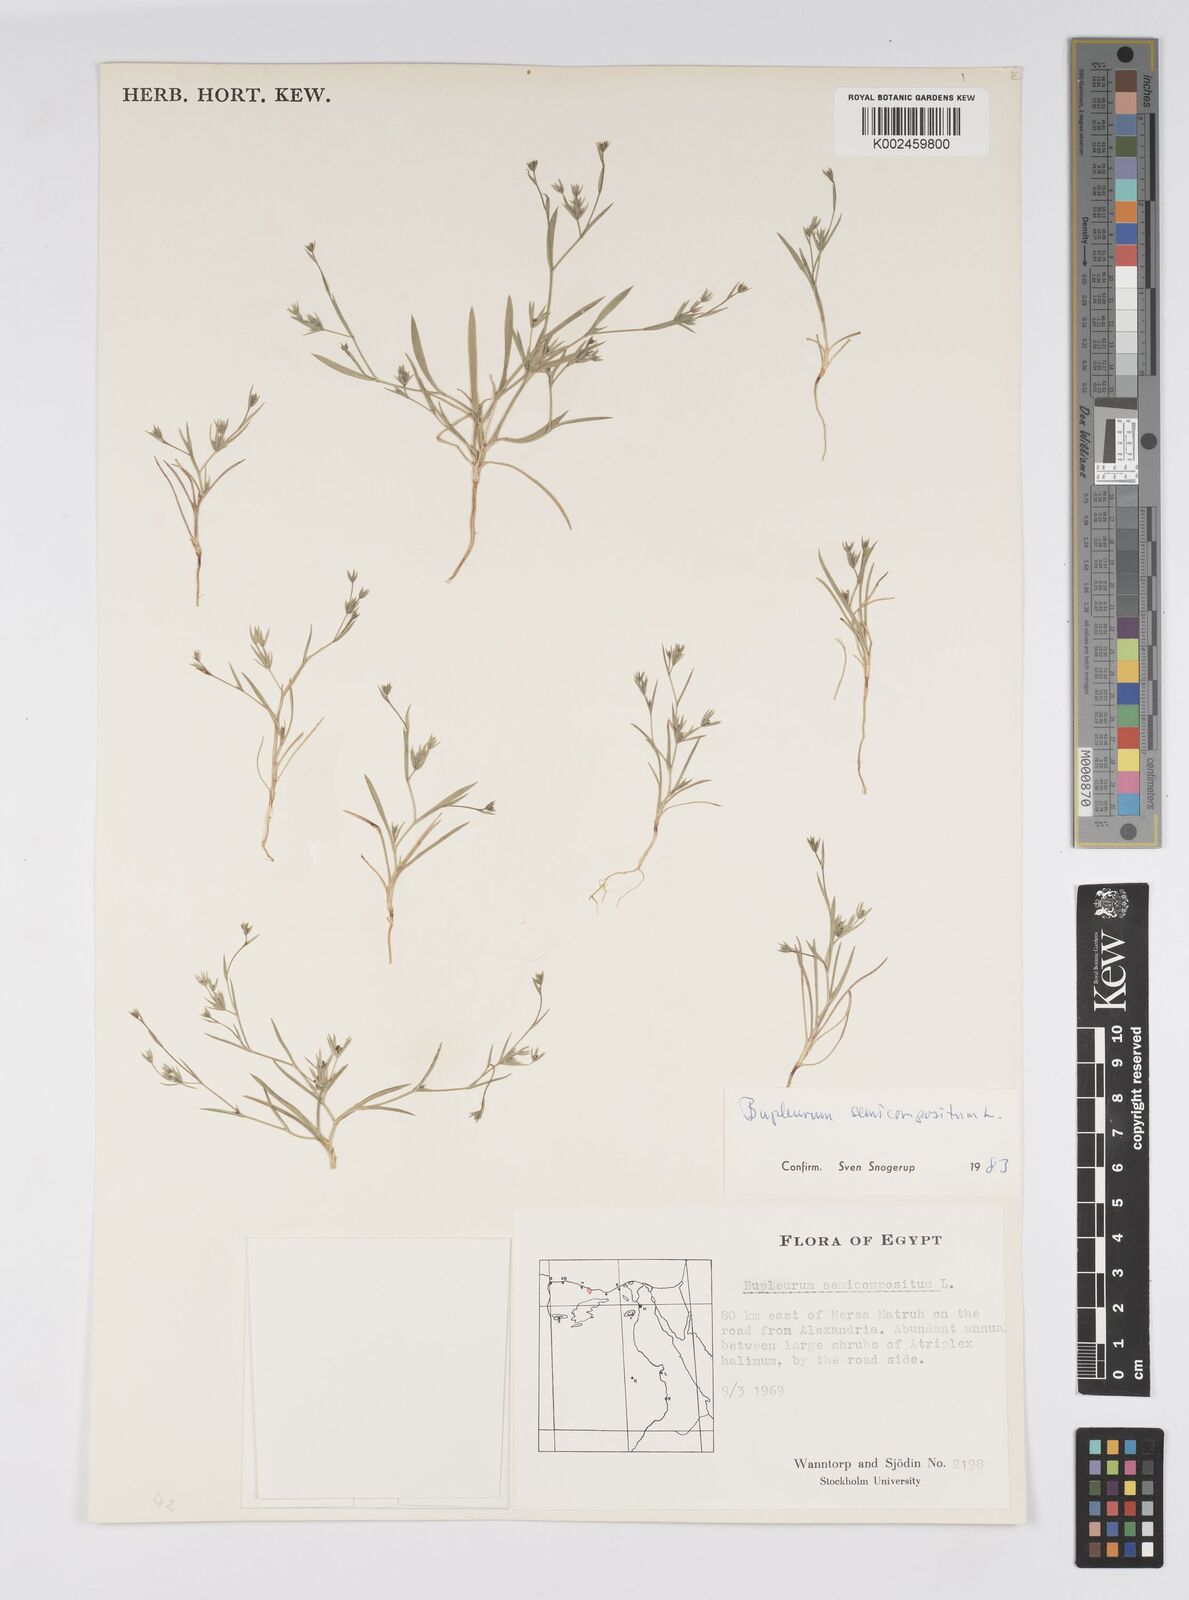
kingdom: Plantae
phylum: Tracheophyta
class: Magnoliopsida
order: Apiales
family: Apiaceae
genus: Bupleurum
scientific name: Bupleurum semicompositum
